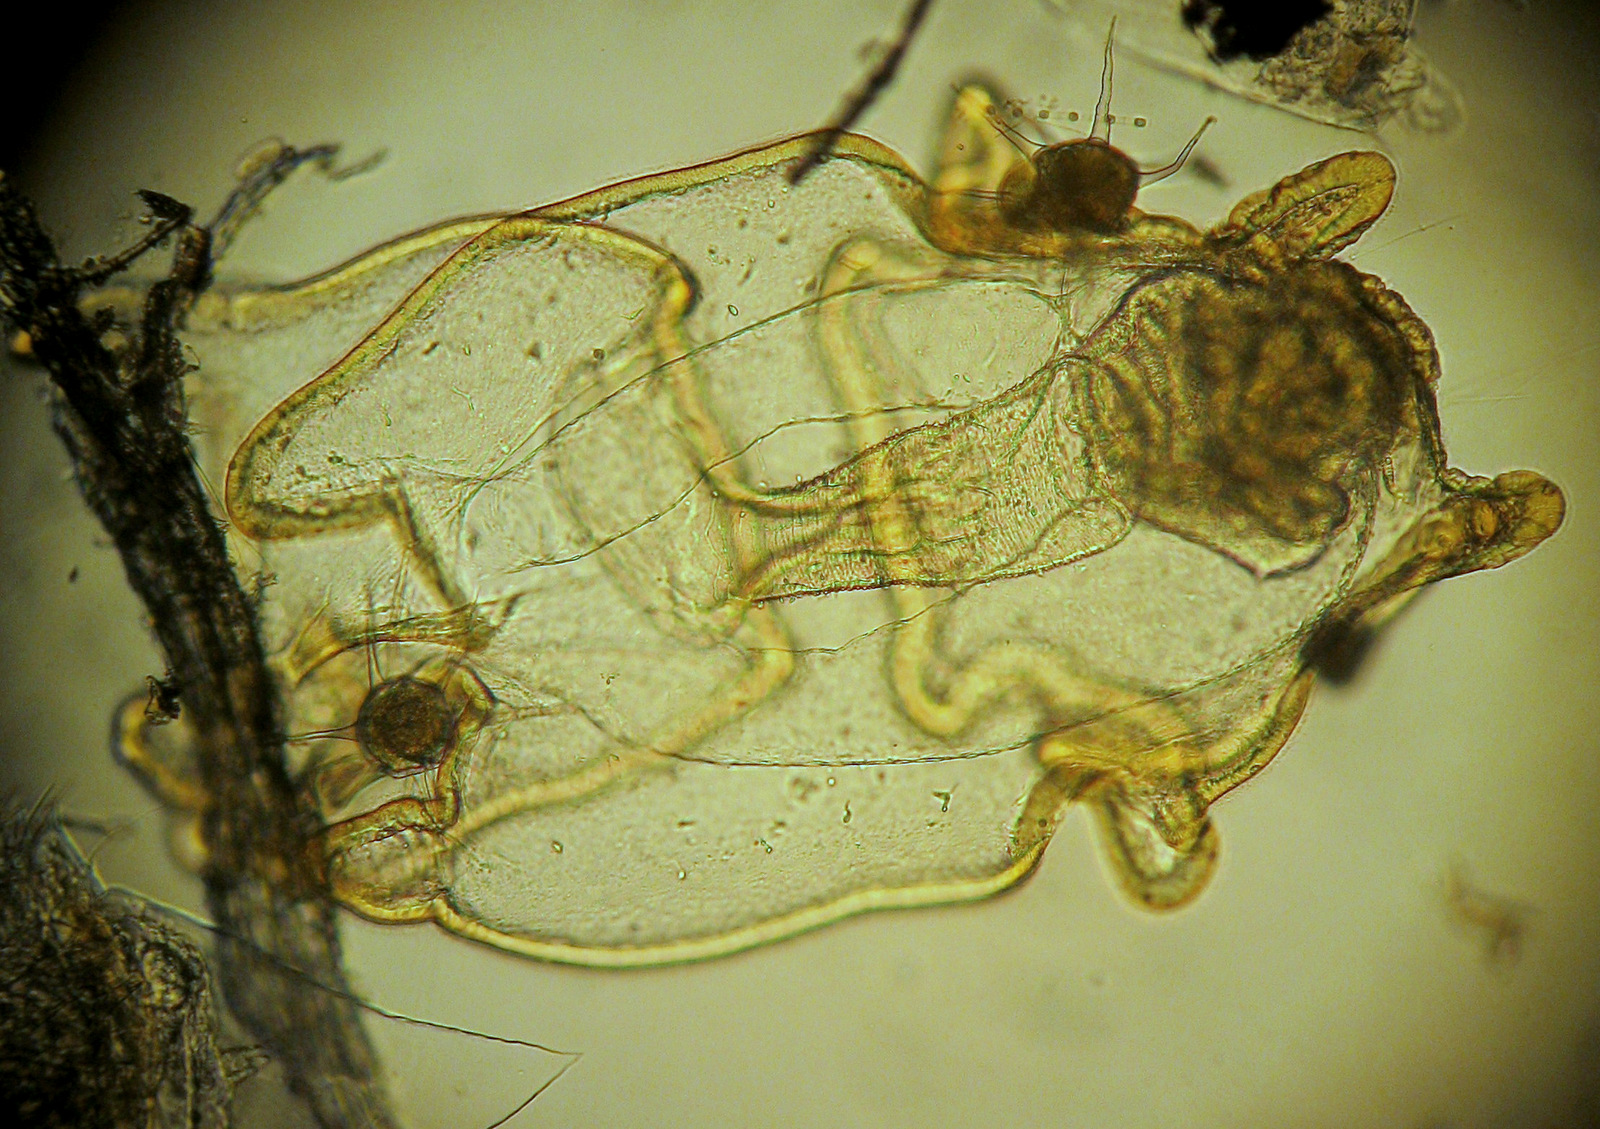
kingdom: Animalia
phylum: Echinodermata
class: Asteroidea
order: Forcipulatida
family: Asteriidae
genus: Asterias
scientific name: Asterias rubens
